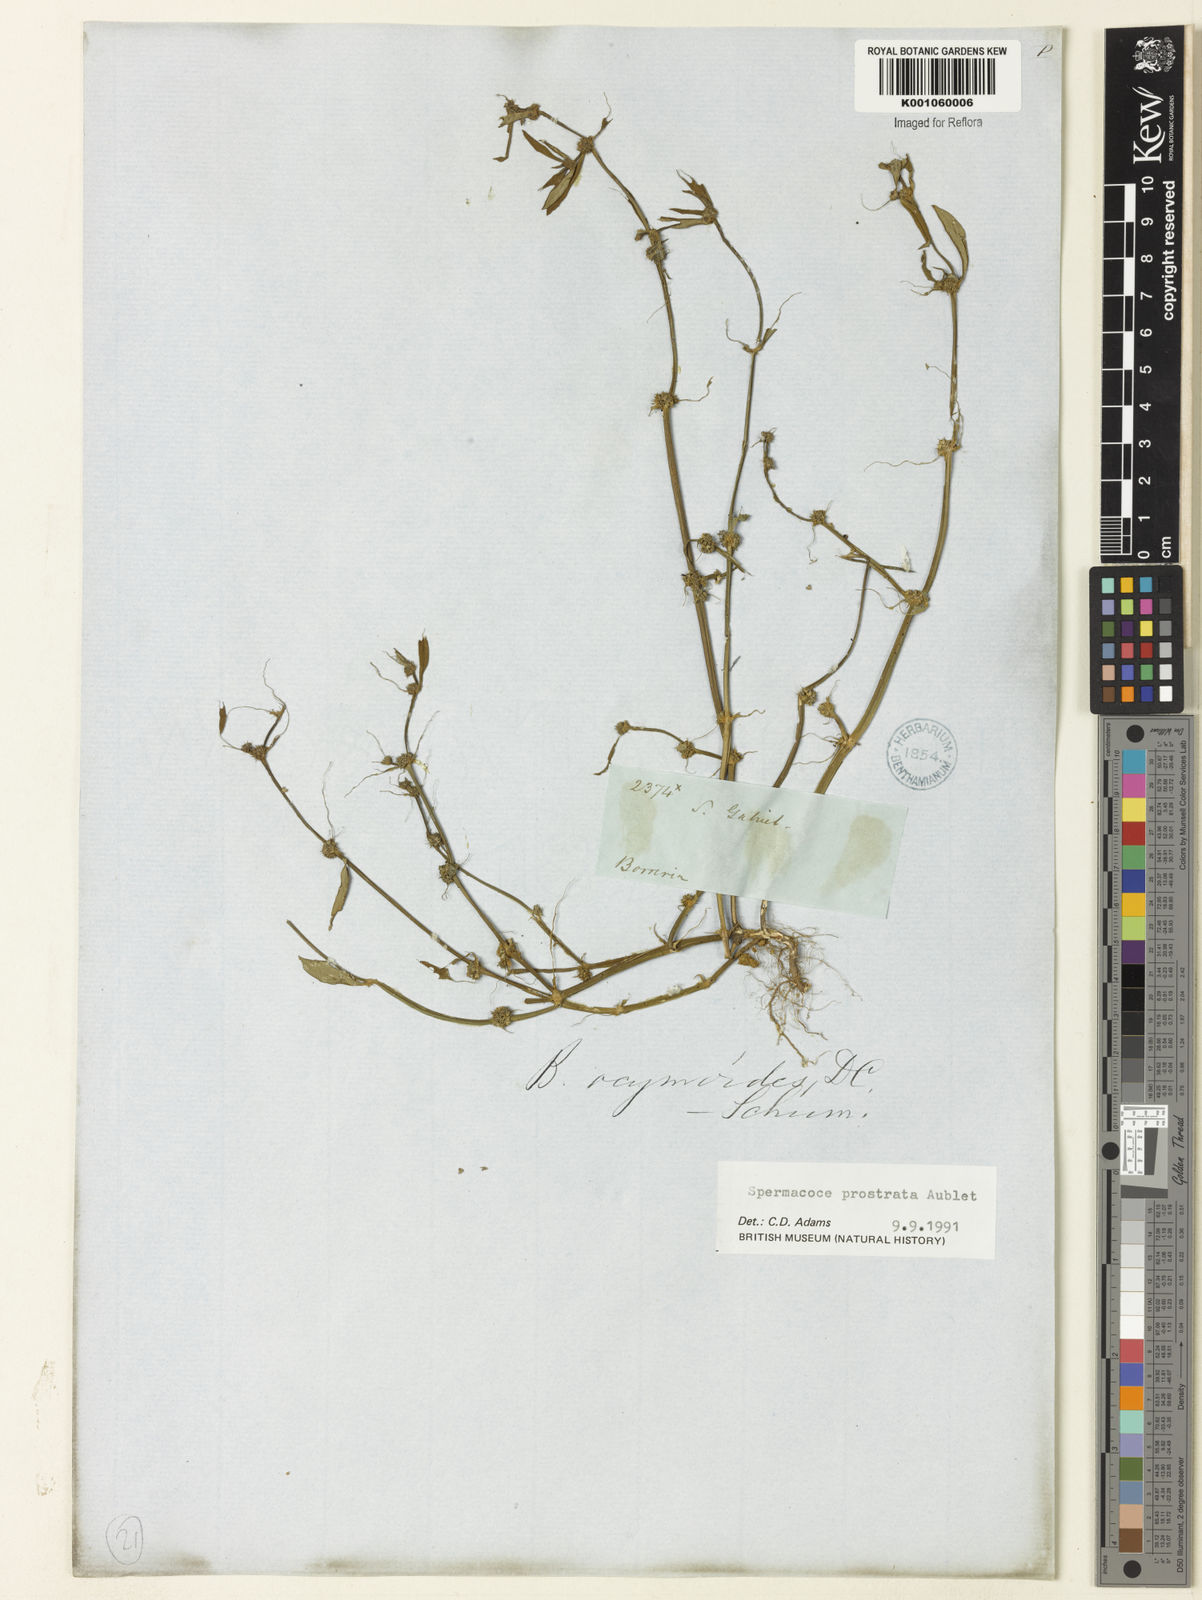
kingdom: Plantae
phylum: Tracheophyta
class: Magnoliopsida
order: Gentianales
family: Rubiaceae
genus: Spermacoce
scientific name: Spermacoce
